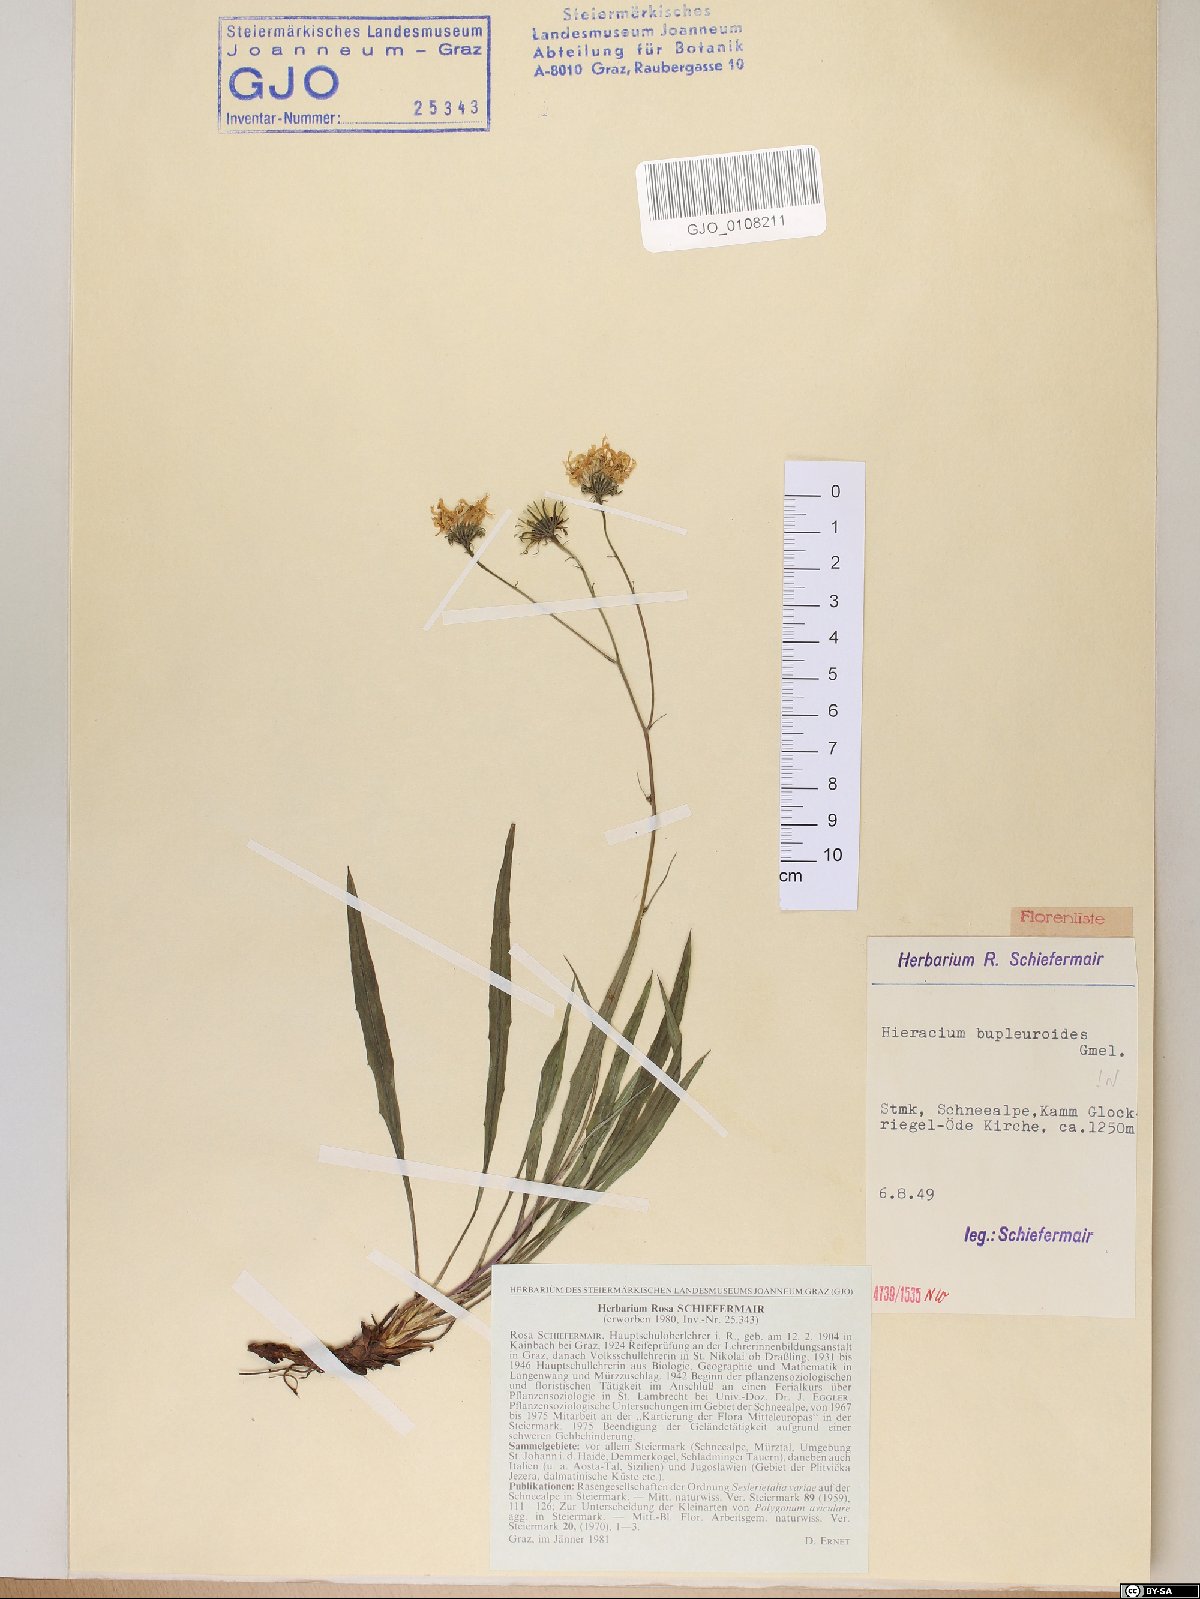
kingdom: Plantae
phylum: Tracheophyta
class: Magnoliopsida
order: Asterales
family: Asteraceae
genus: Hieracium
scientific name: Hieracium bupleuroides
